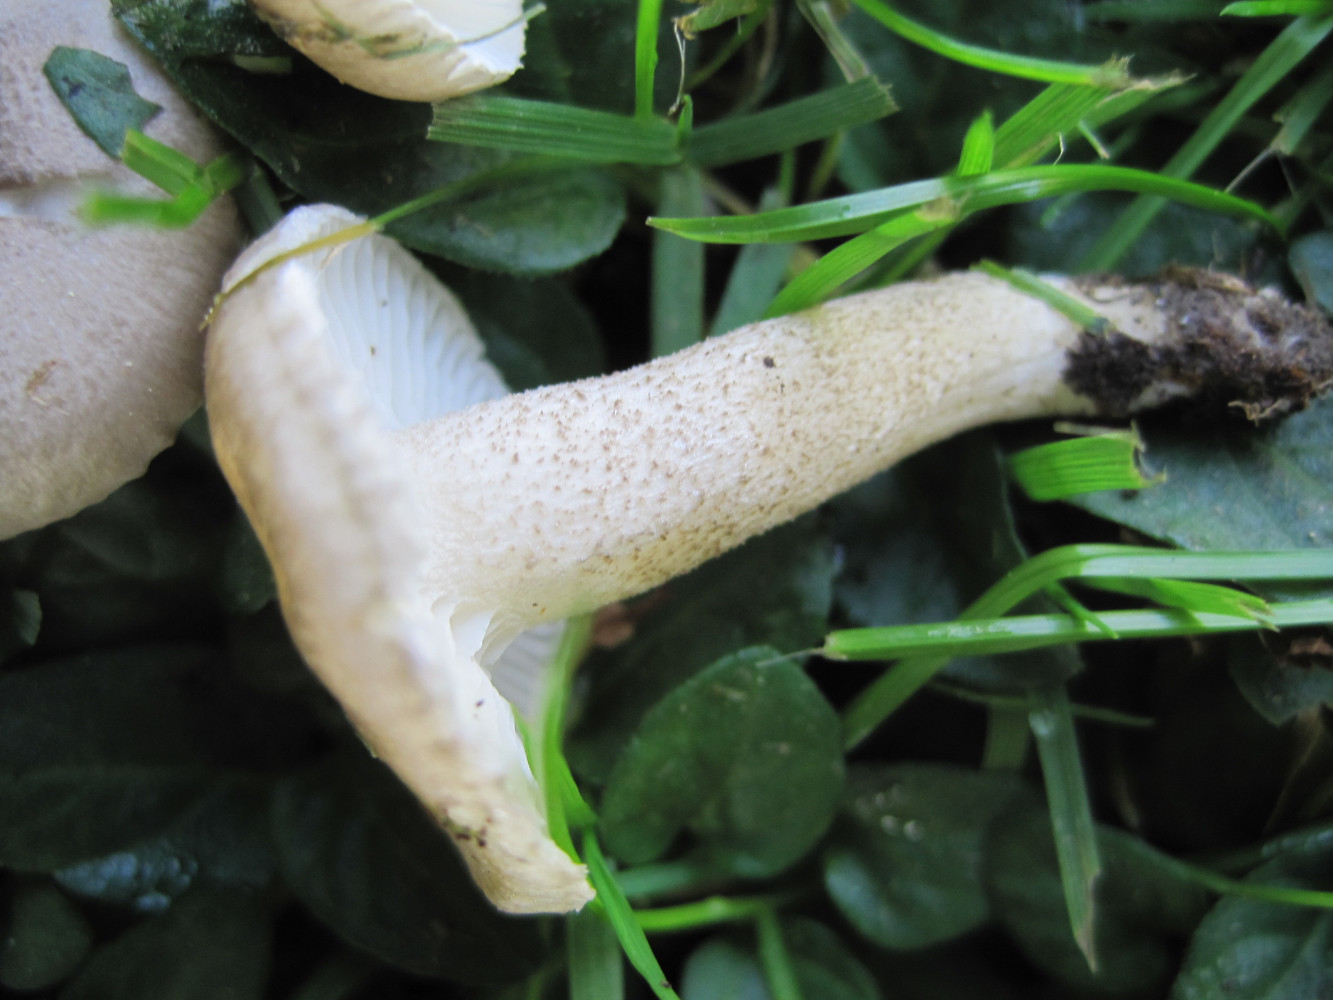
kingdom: Fungi
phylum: Basidiomycota
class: Agaricomycetes
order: Agaricales
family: Hygrophoraceae
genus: Hygrophorus
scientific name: Hygrophorus pustulatus
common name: mørkprikket sneglehat
